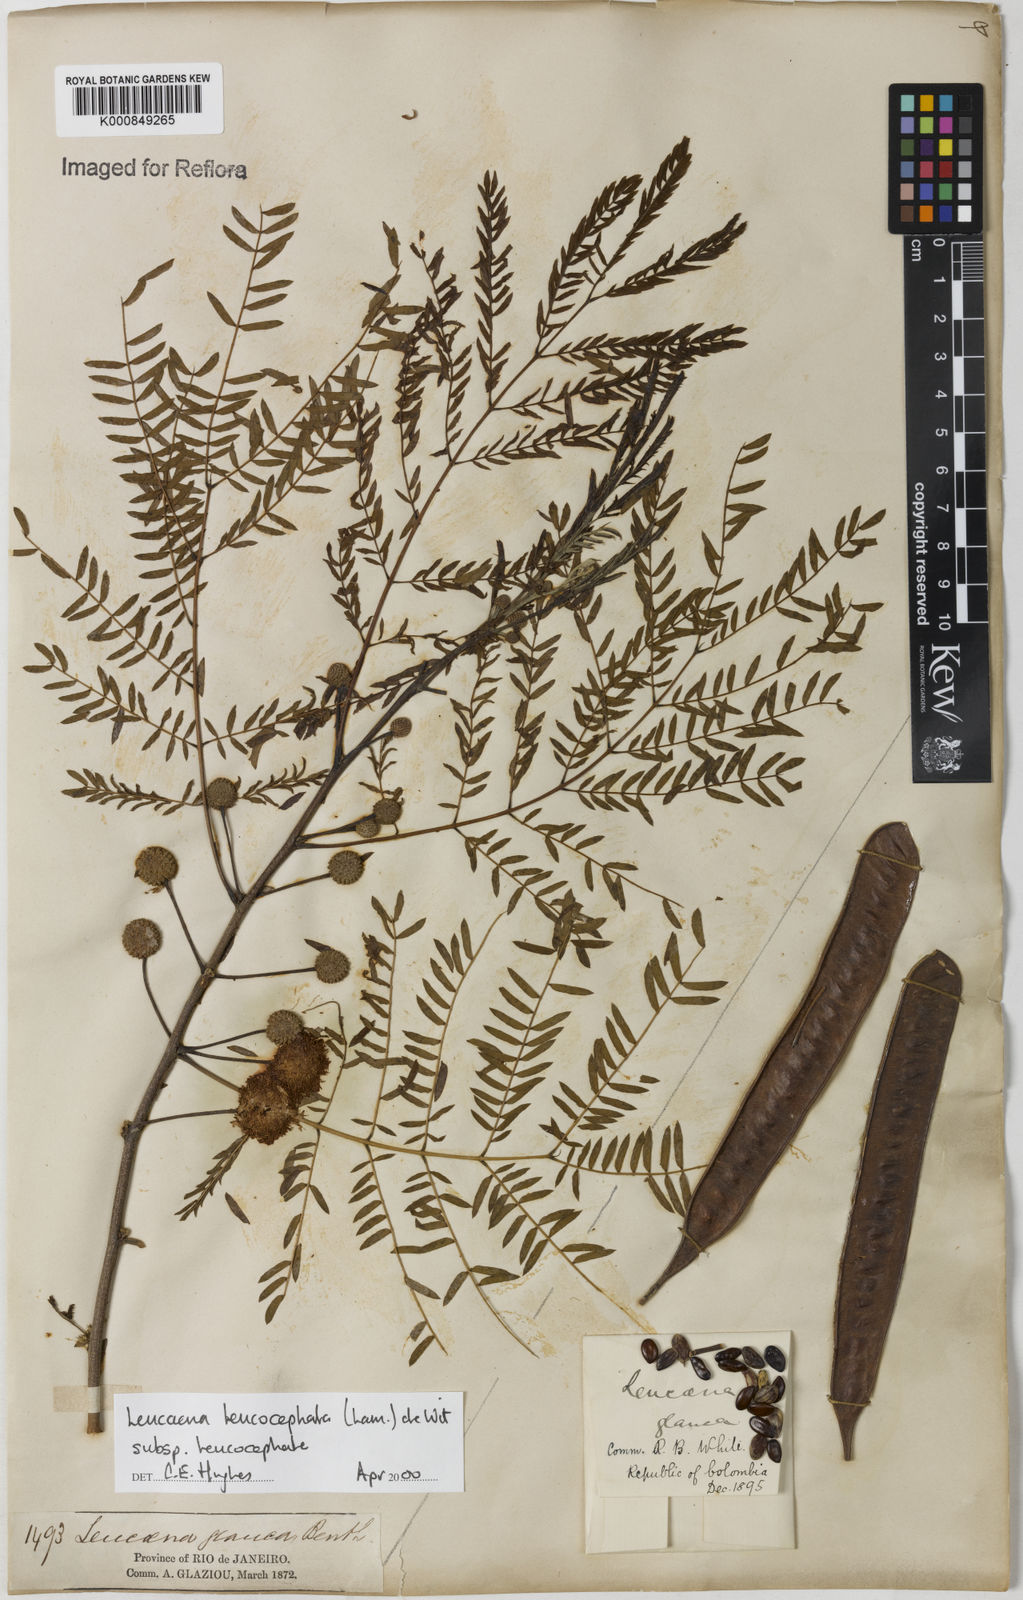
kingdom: Plantae
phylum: Tracheophyta
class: Magnoliopsida
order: Fabales
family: Fabaceae
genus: Leucaena
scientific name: Leucaena leucocephala
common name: White leadtree
